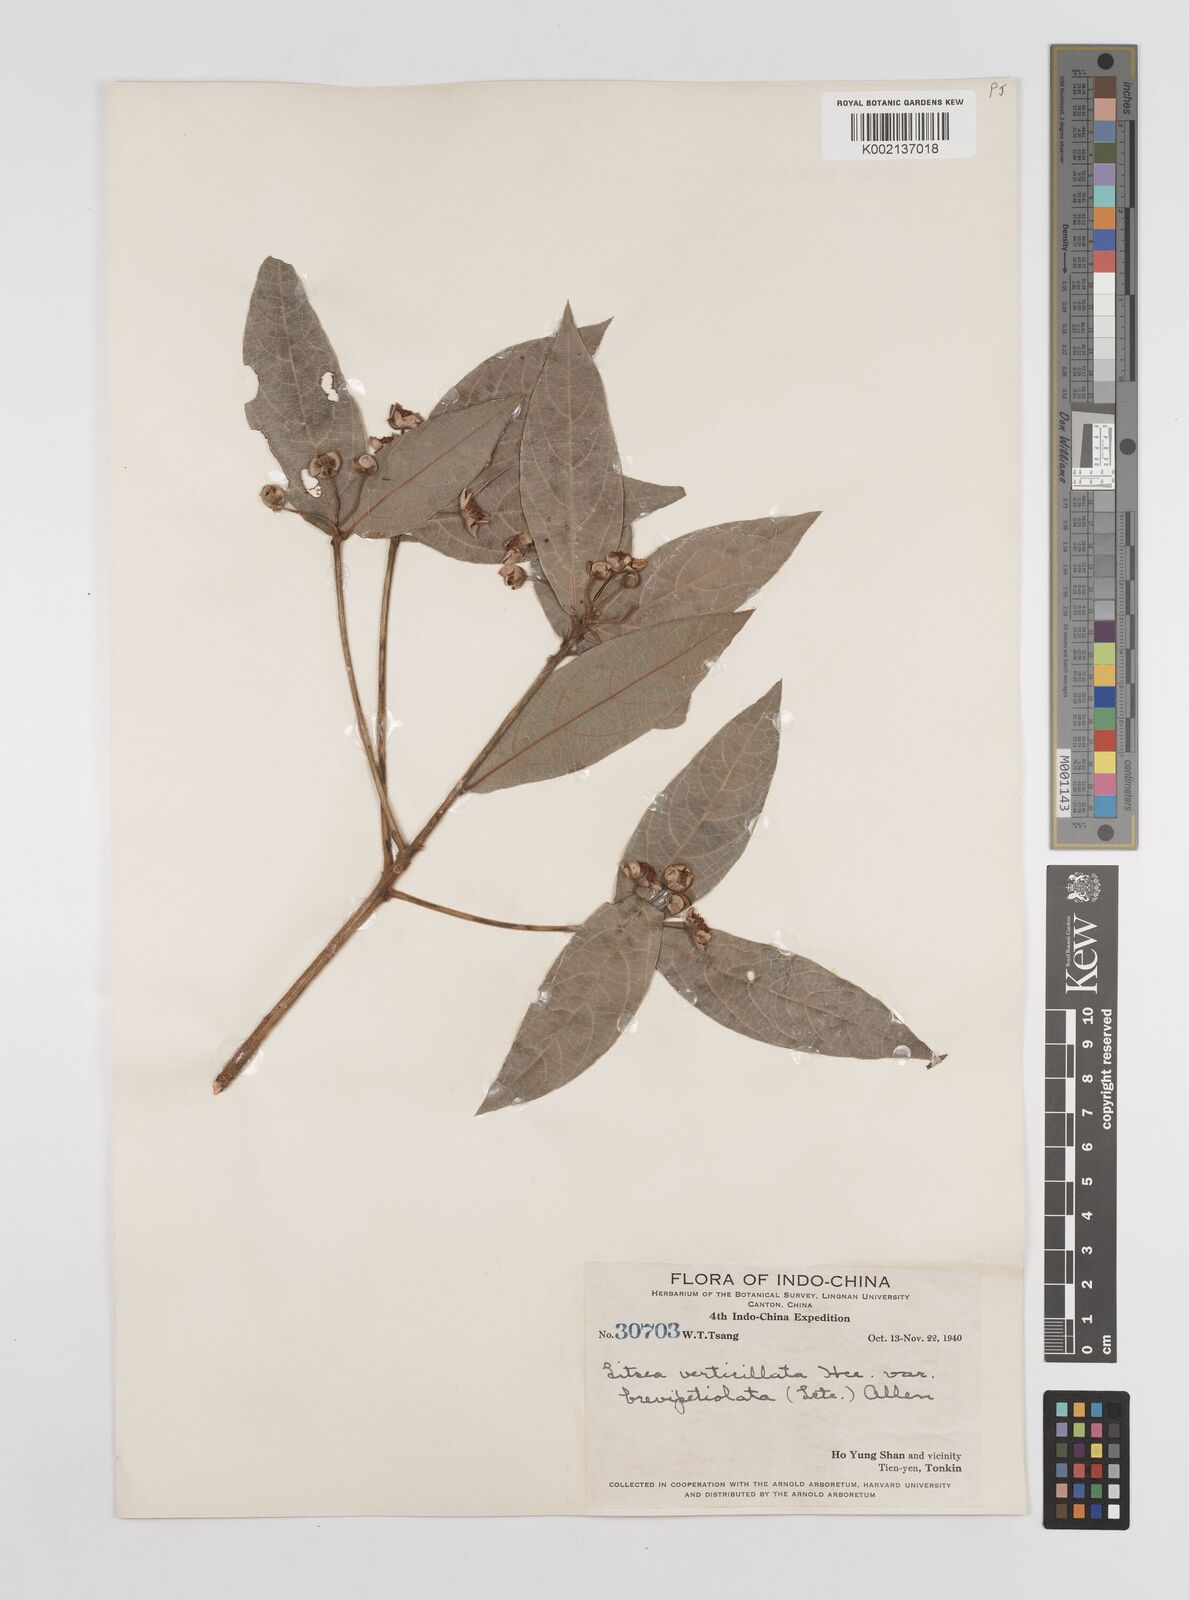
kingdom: Plantae
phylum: Tracheophyta
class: Magnoliopsida
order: Laurales
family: Lauraceae
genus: Litsea
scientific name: Litsea verticillata
